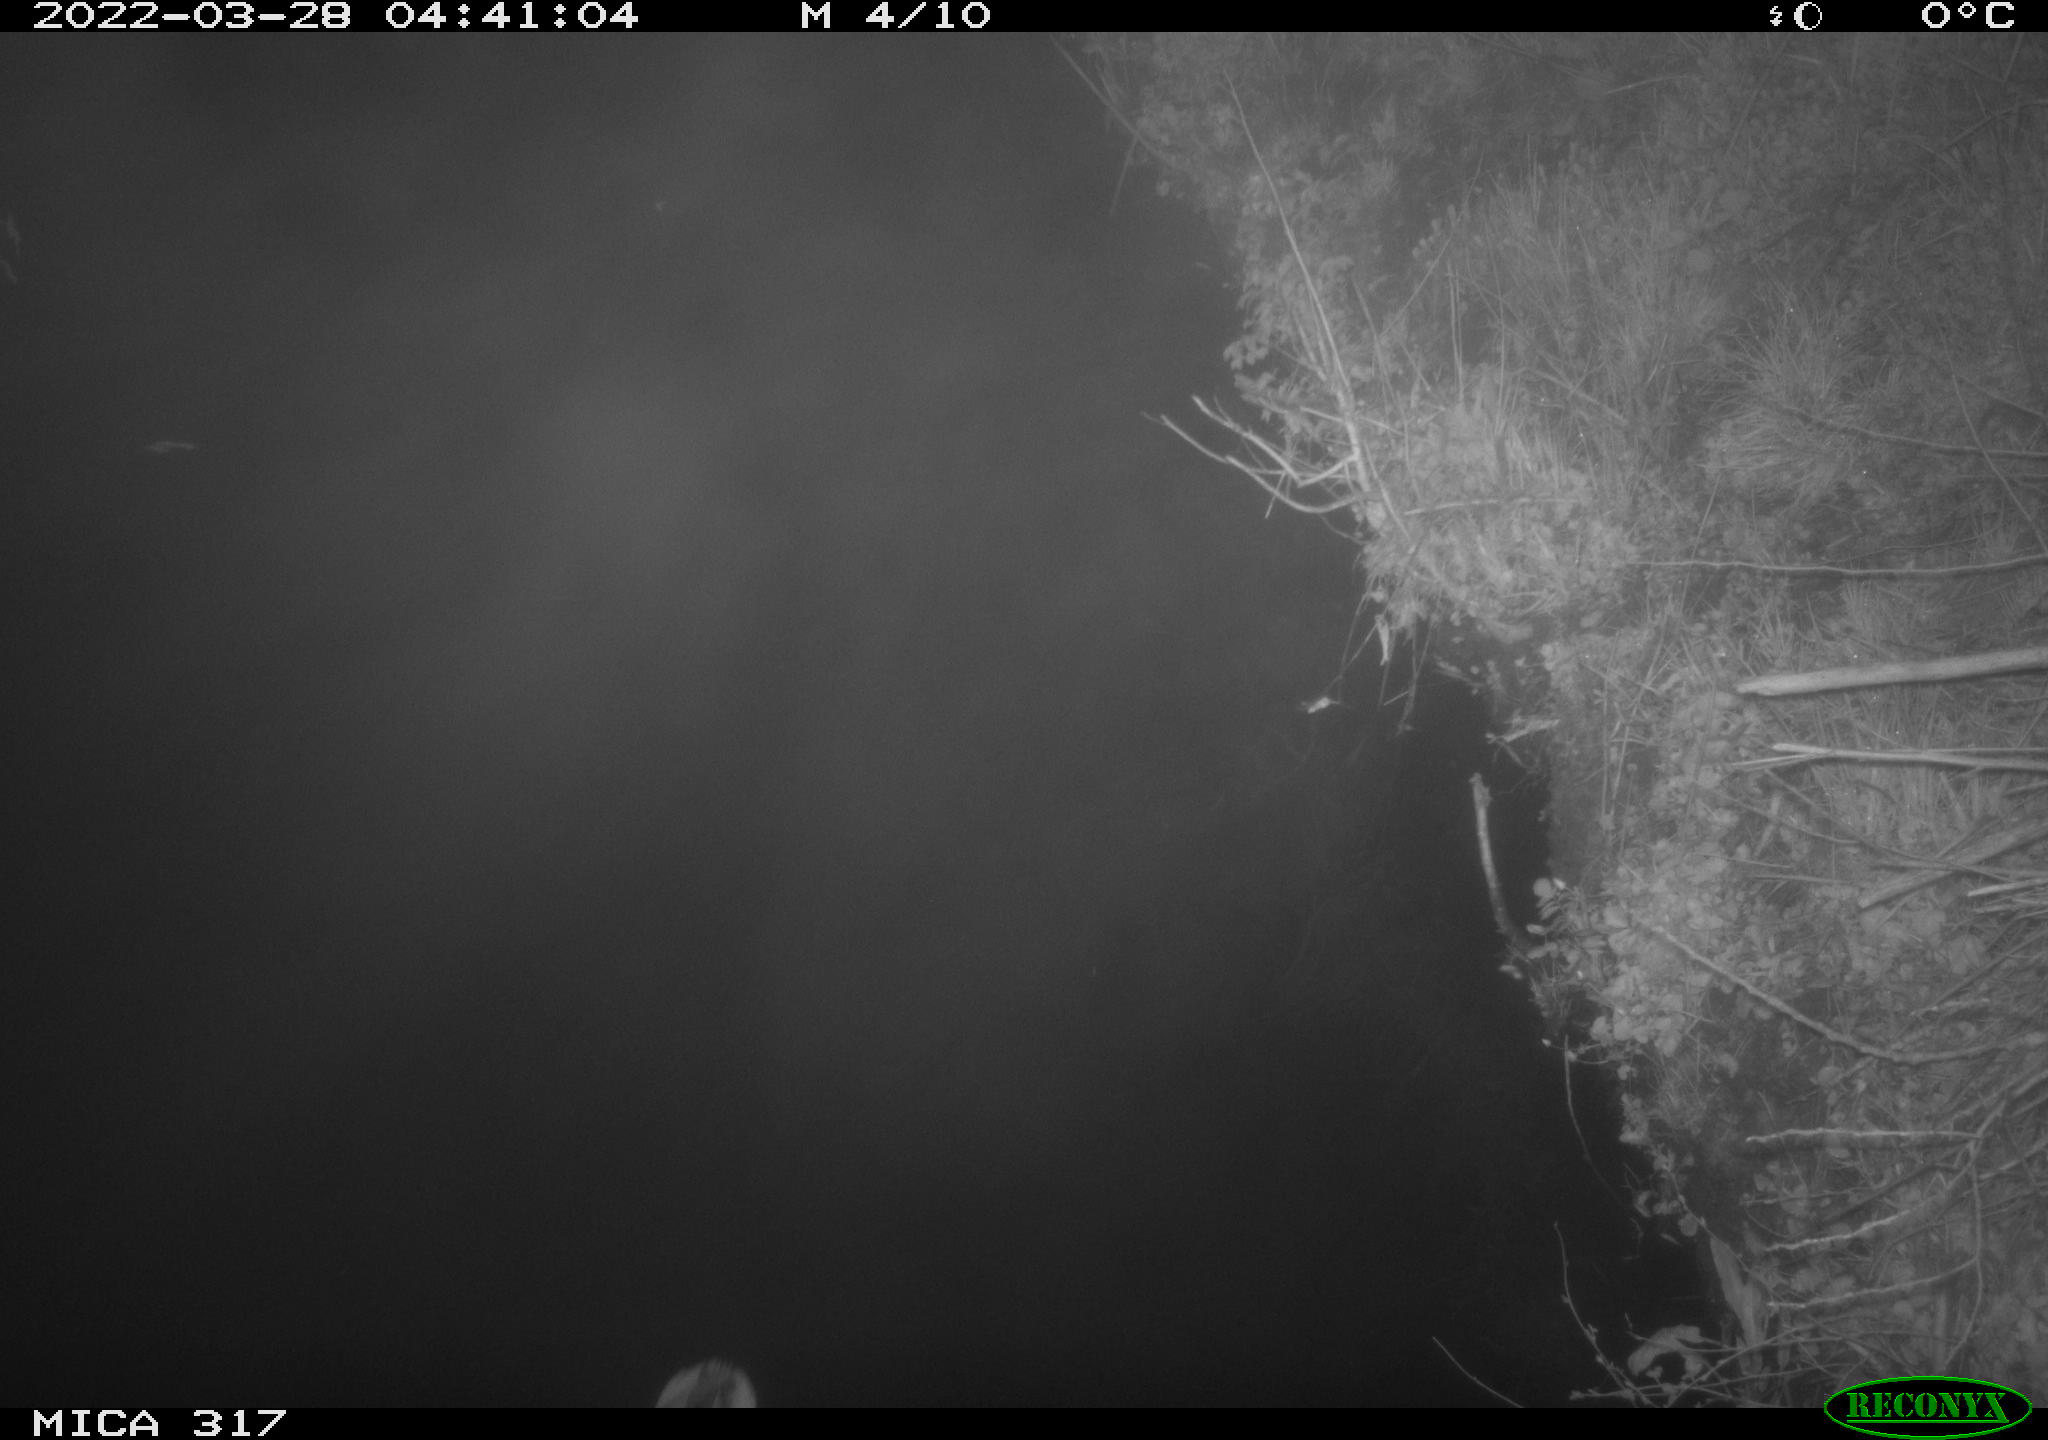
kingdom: Animalia
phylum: Chordata
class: Aves
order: Anseriformes
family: Anatidae
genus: Anas
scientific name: Anas platyrhynchos
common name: Mallard
